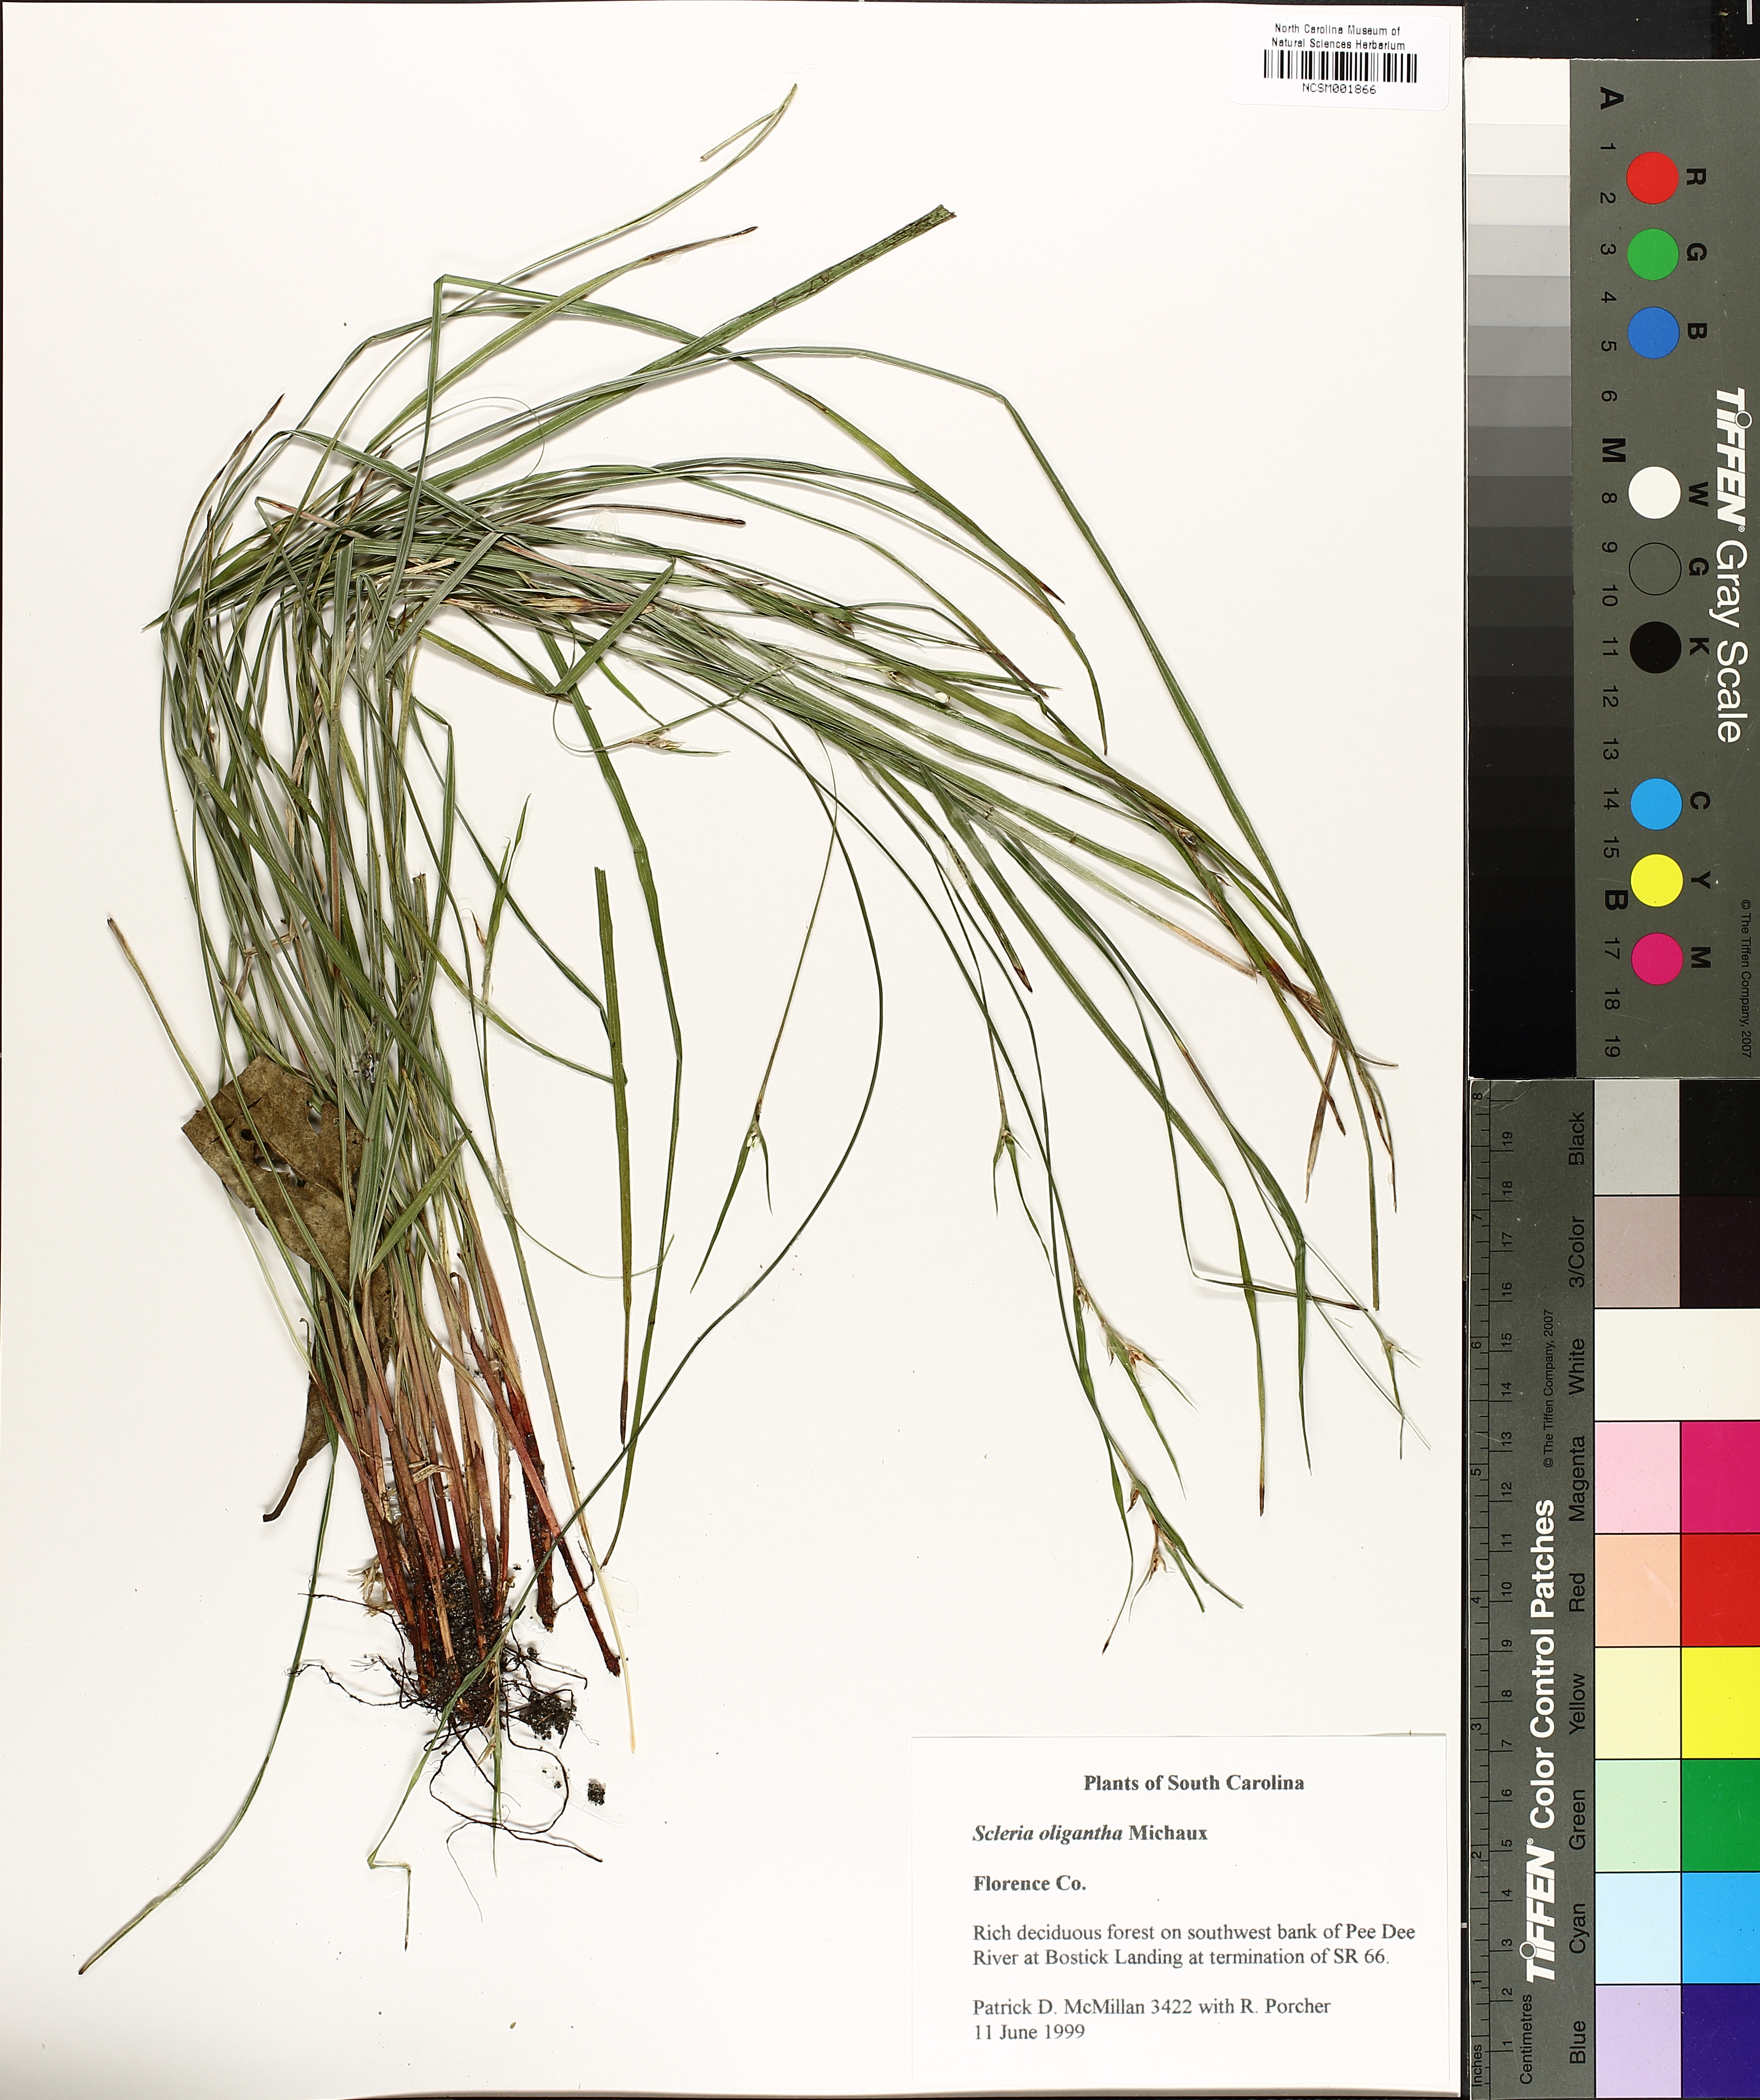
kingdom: Plantae
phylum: Tracheophyta
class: Liliopsida
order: Poales
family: Cyperaceae
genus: Scleria
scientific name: Scleria oligantha
